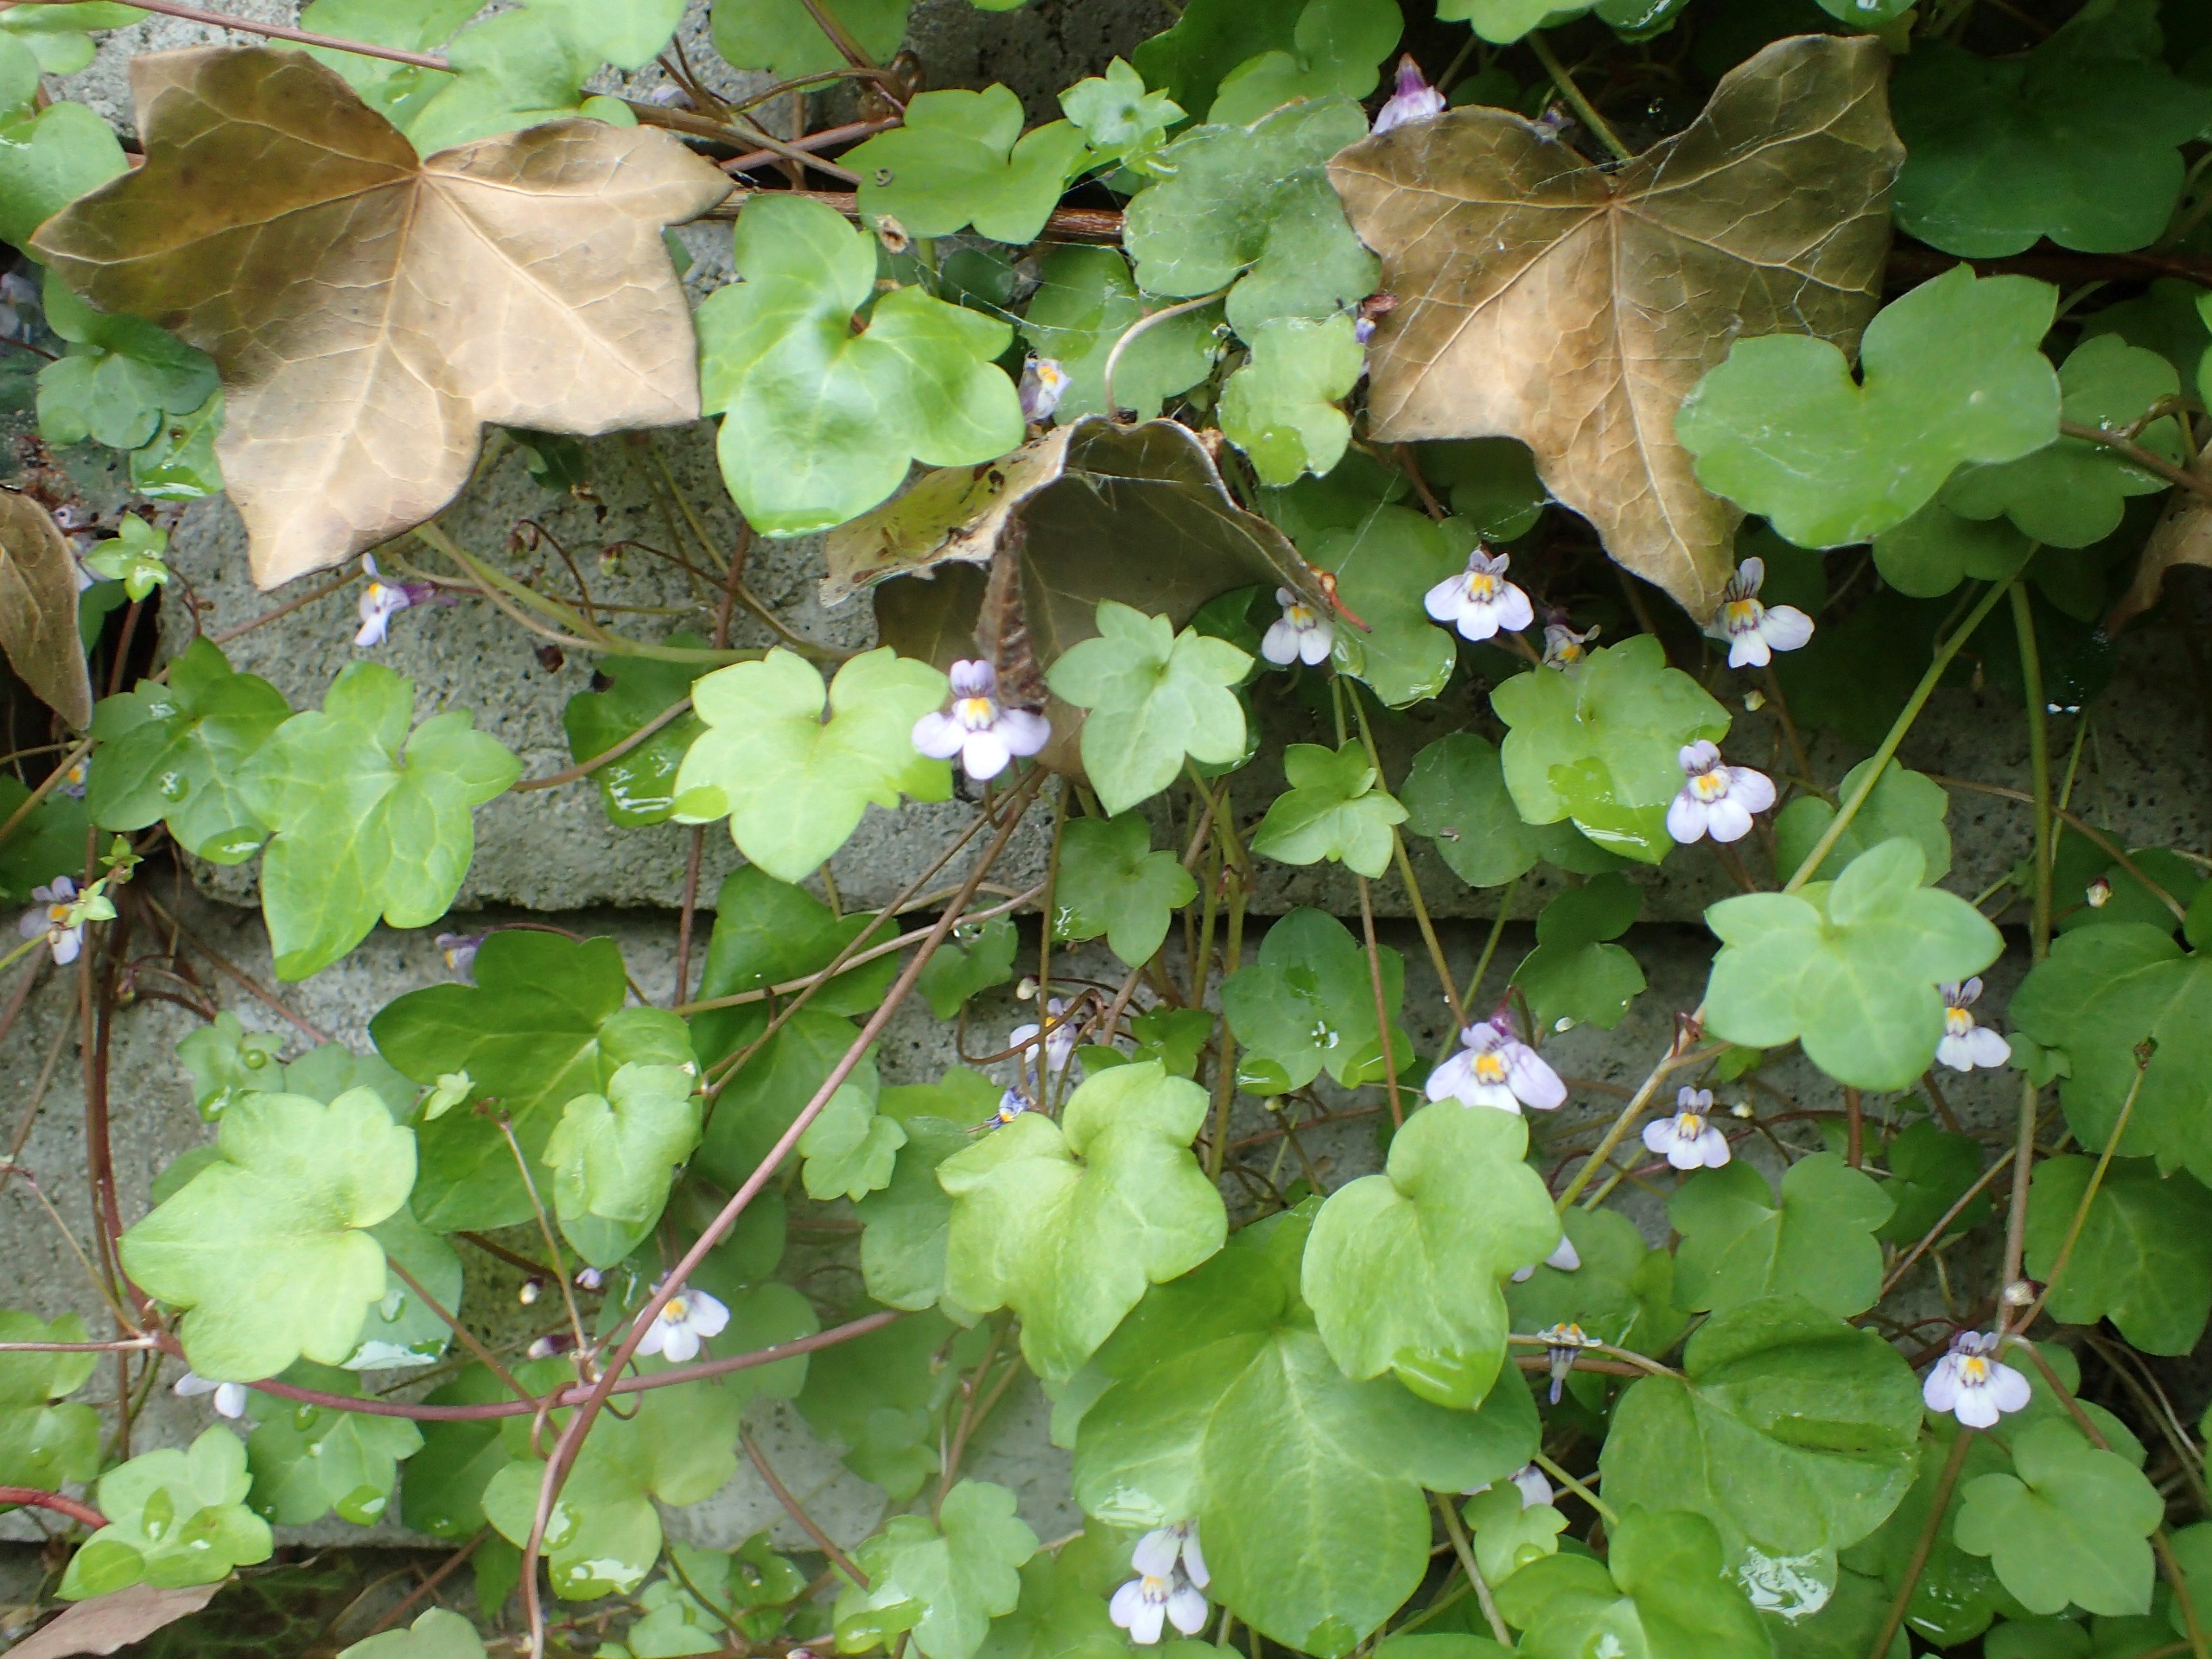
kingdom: Plantae
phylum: Tracheophyta
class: Magnoliopsida
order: Lamiales
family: Plantaginaceae
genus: Cymbalaria
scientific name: Cymbalaria muralis
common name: Vedbend-torskemund
